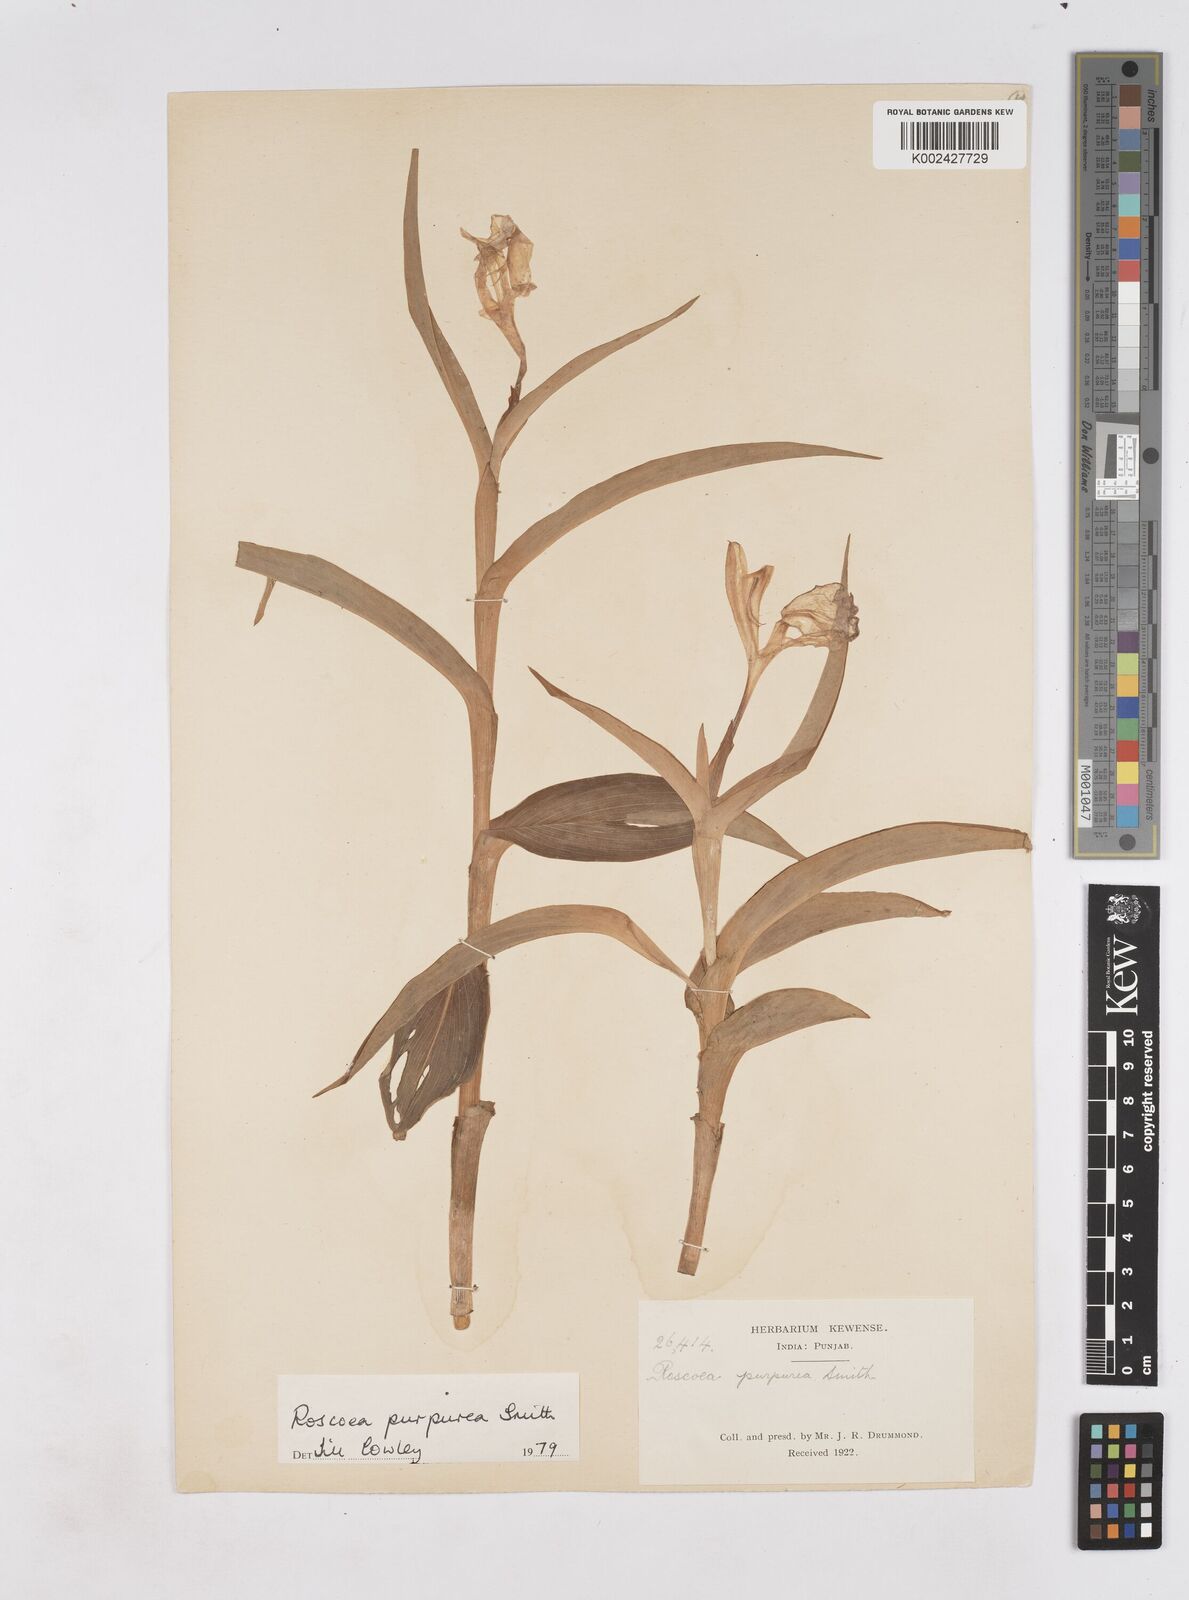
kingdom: Plantae
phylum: Tracheophyta
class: Liliopsida
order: Zingiberales
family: Zingiberaceae
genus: Roscoea
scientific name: Roscoea purpurea
